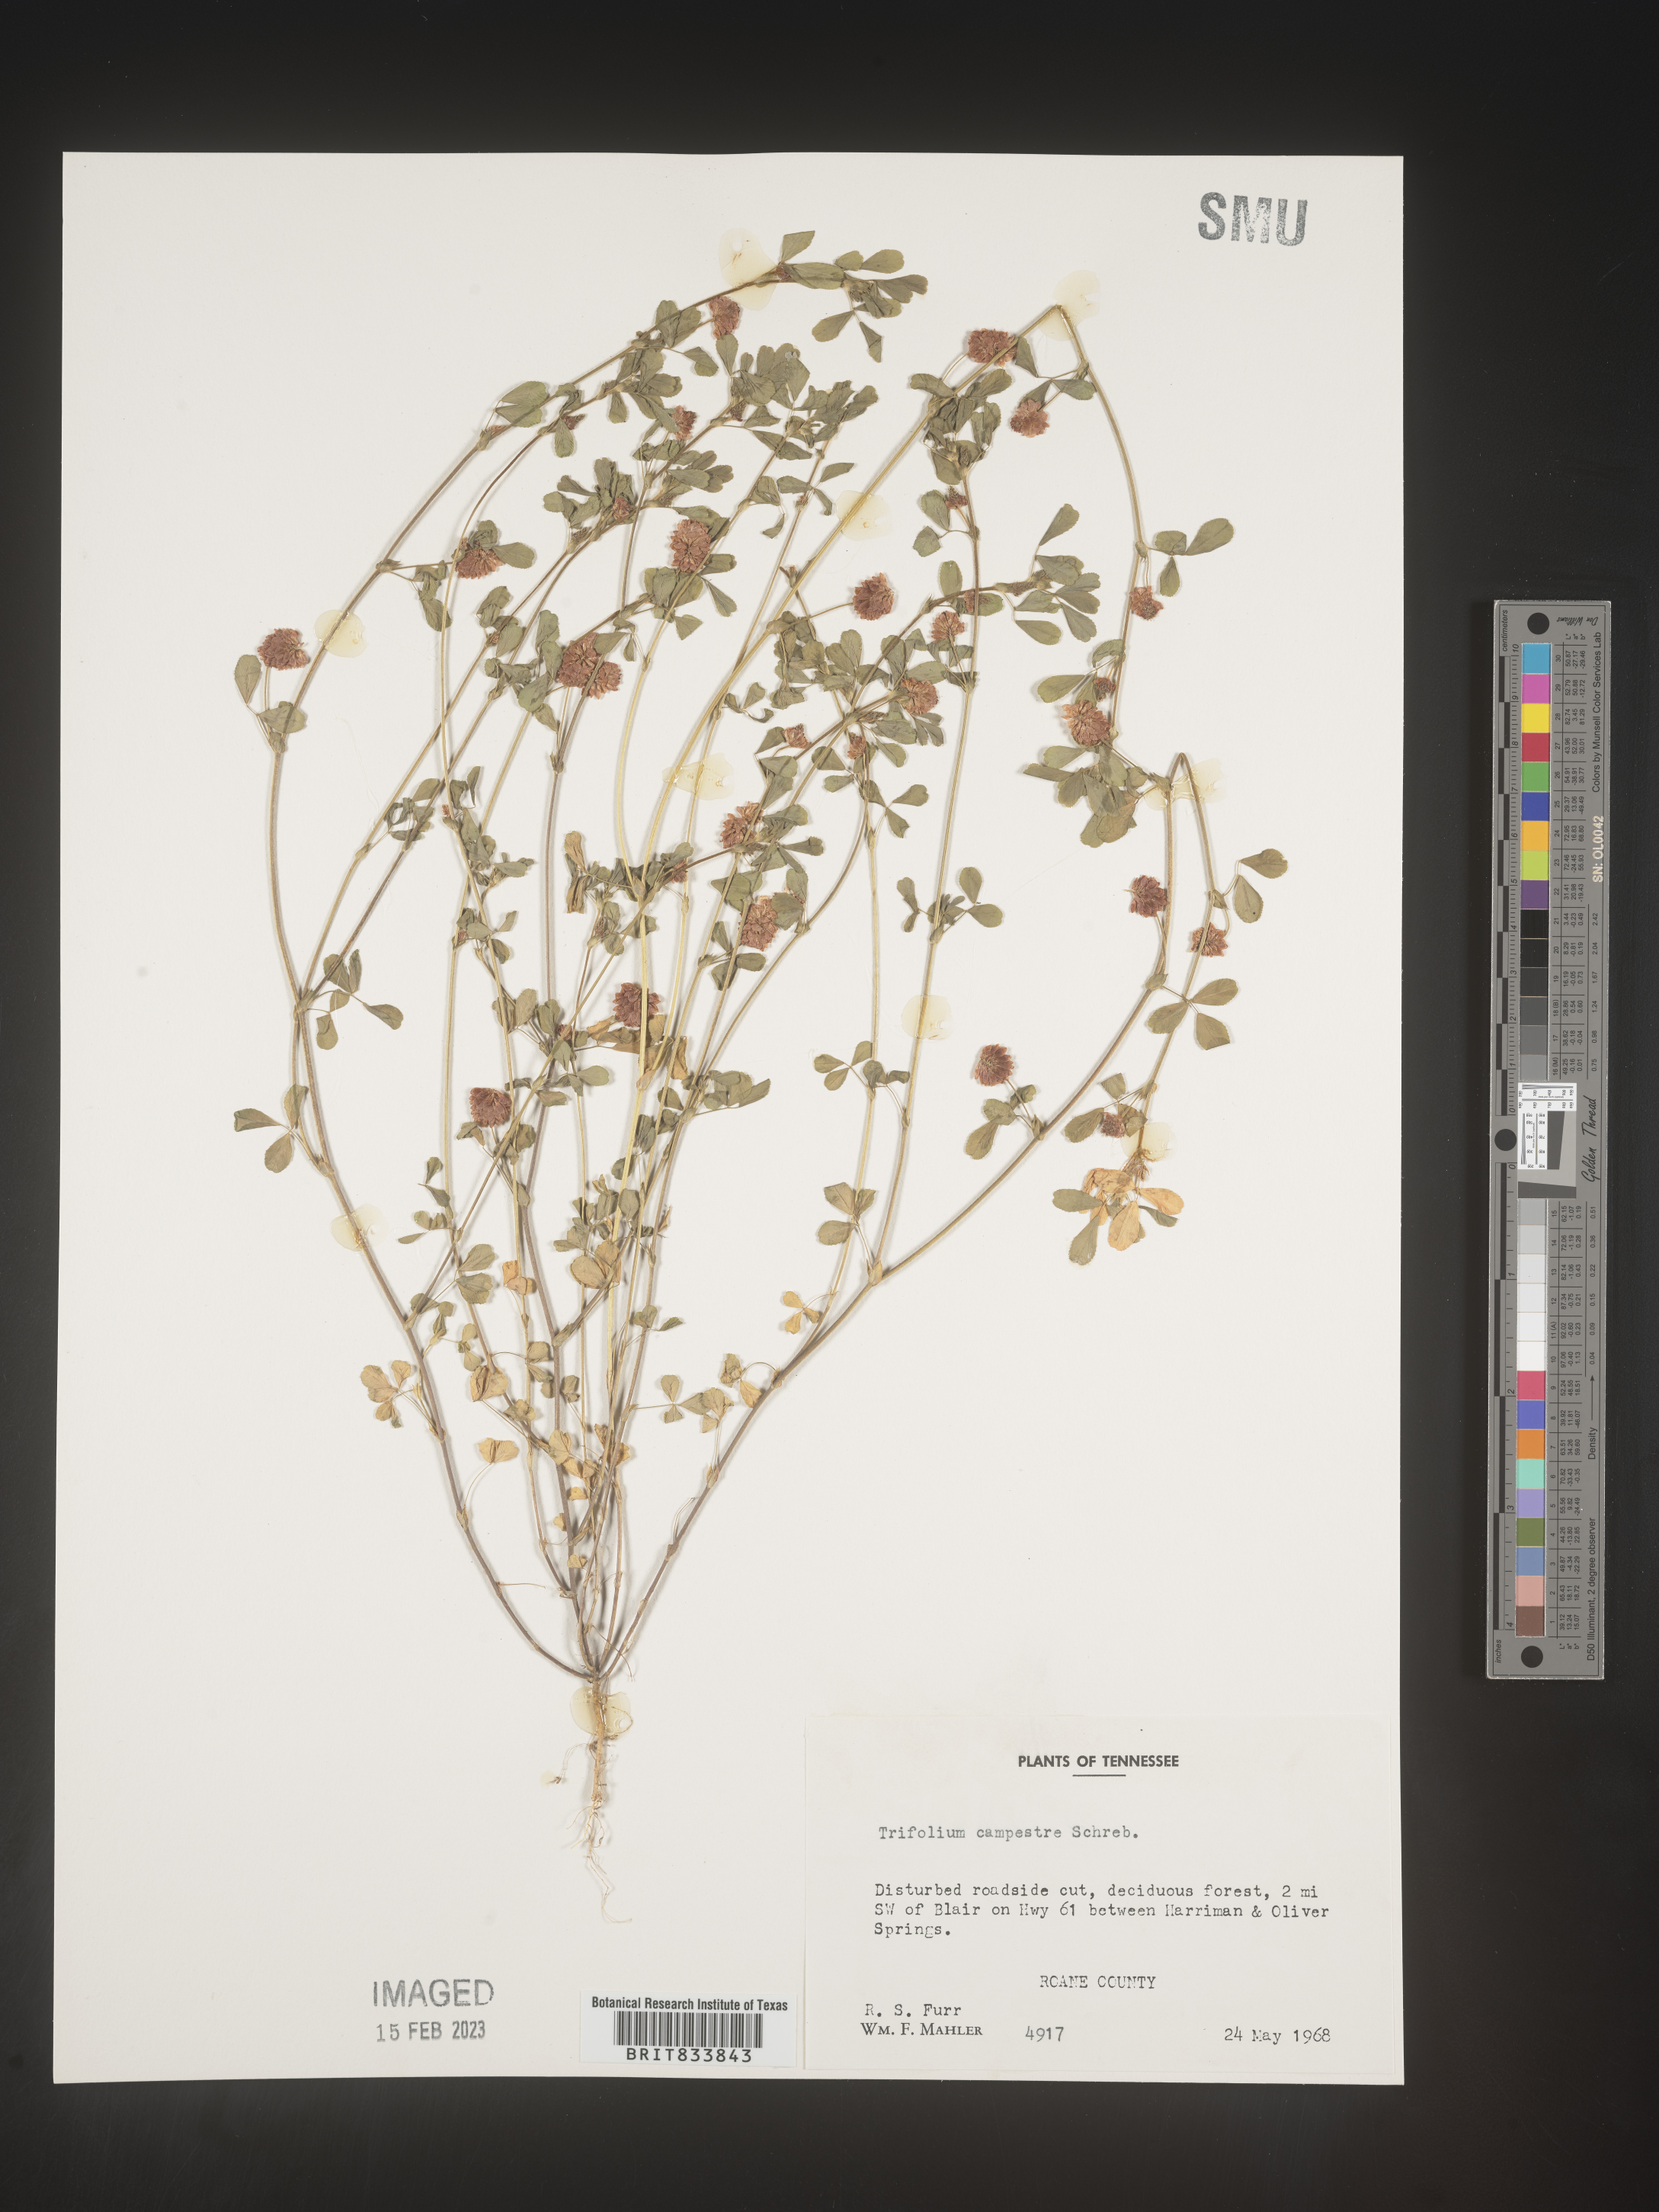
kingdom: Plantae
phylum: Tracheophyta
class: Magnoliopsida
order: Fabales
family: Fabaceae
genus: Trifolium
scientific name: Trifolium campestre
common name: Field clover
